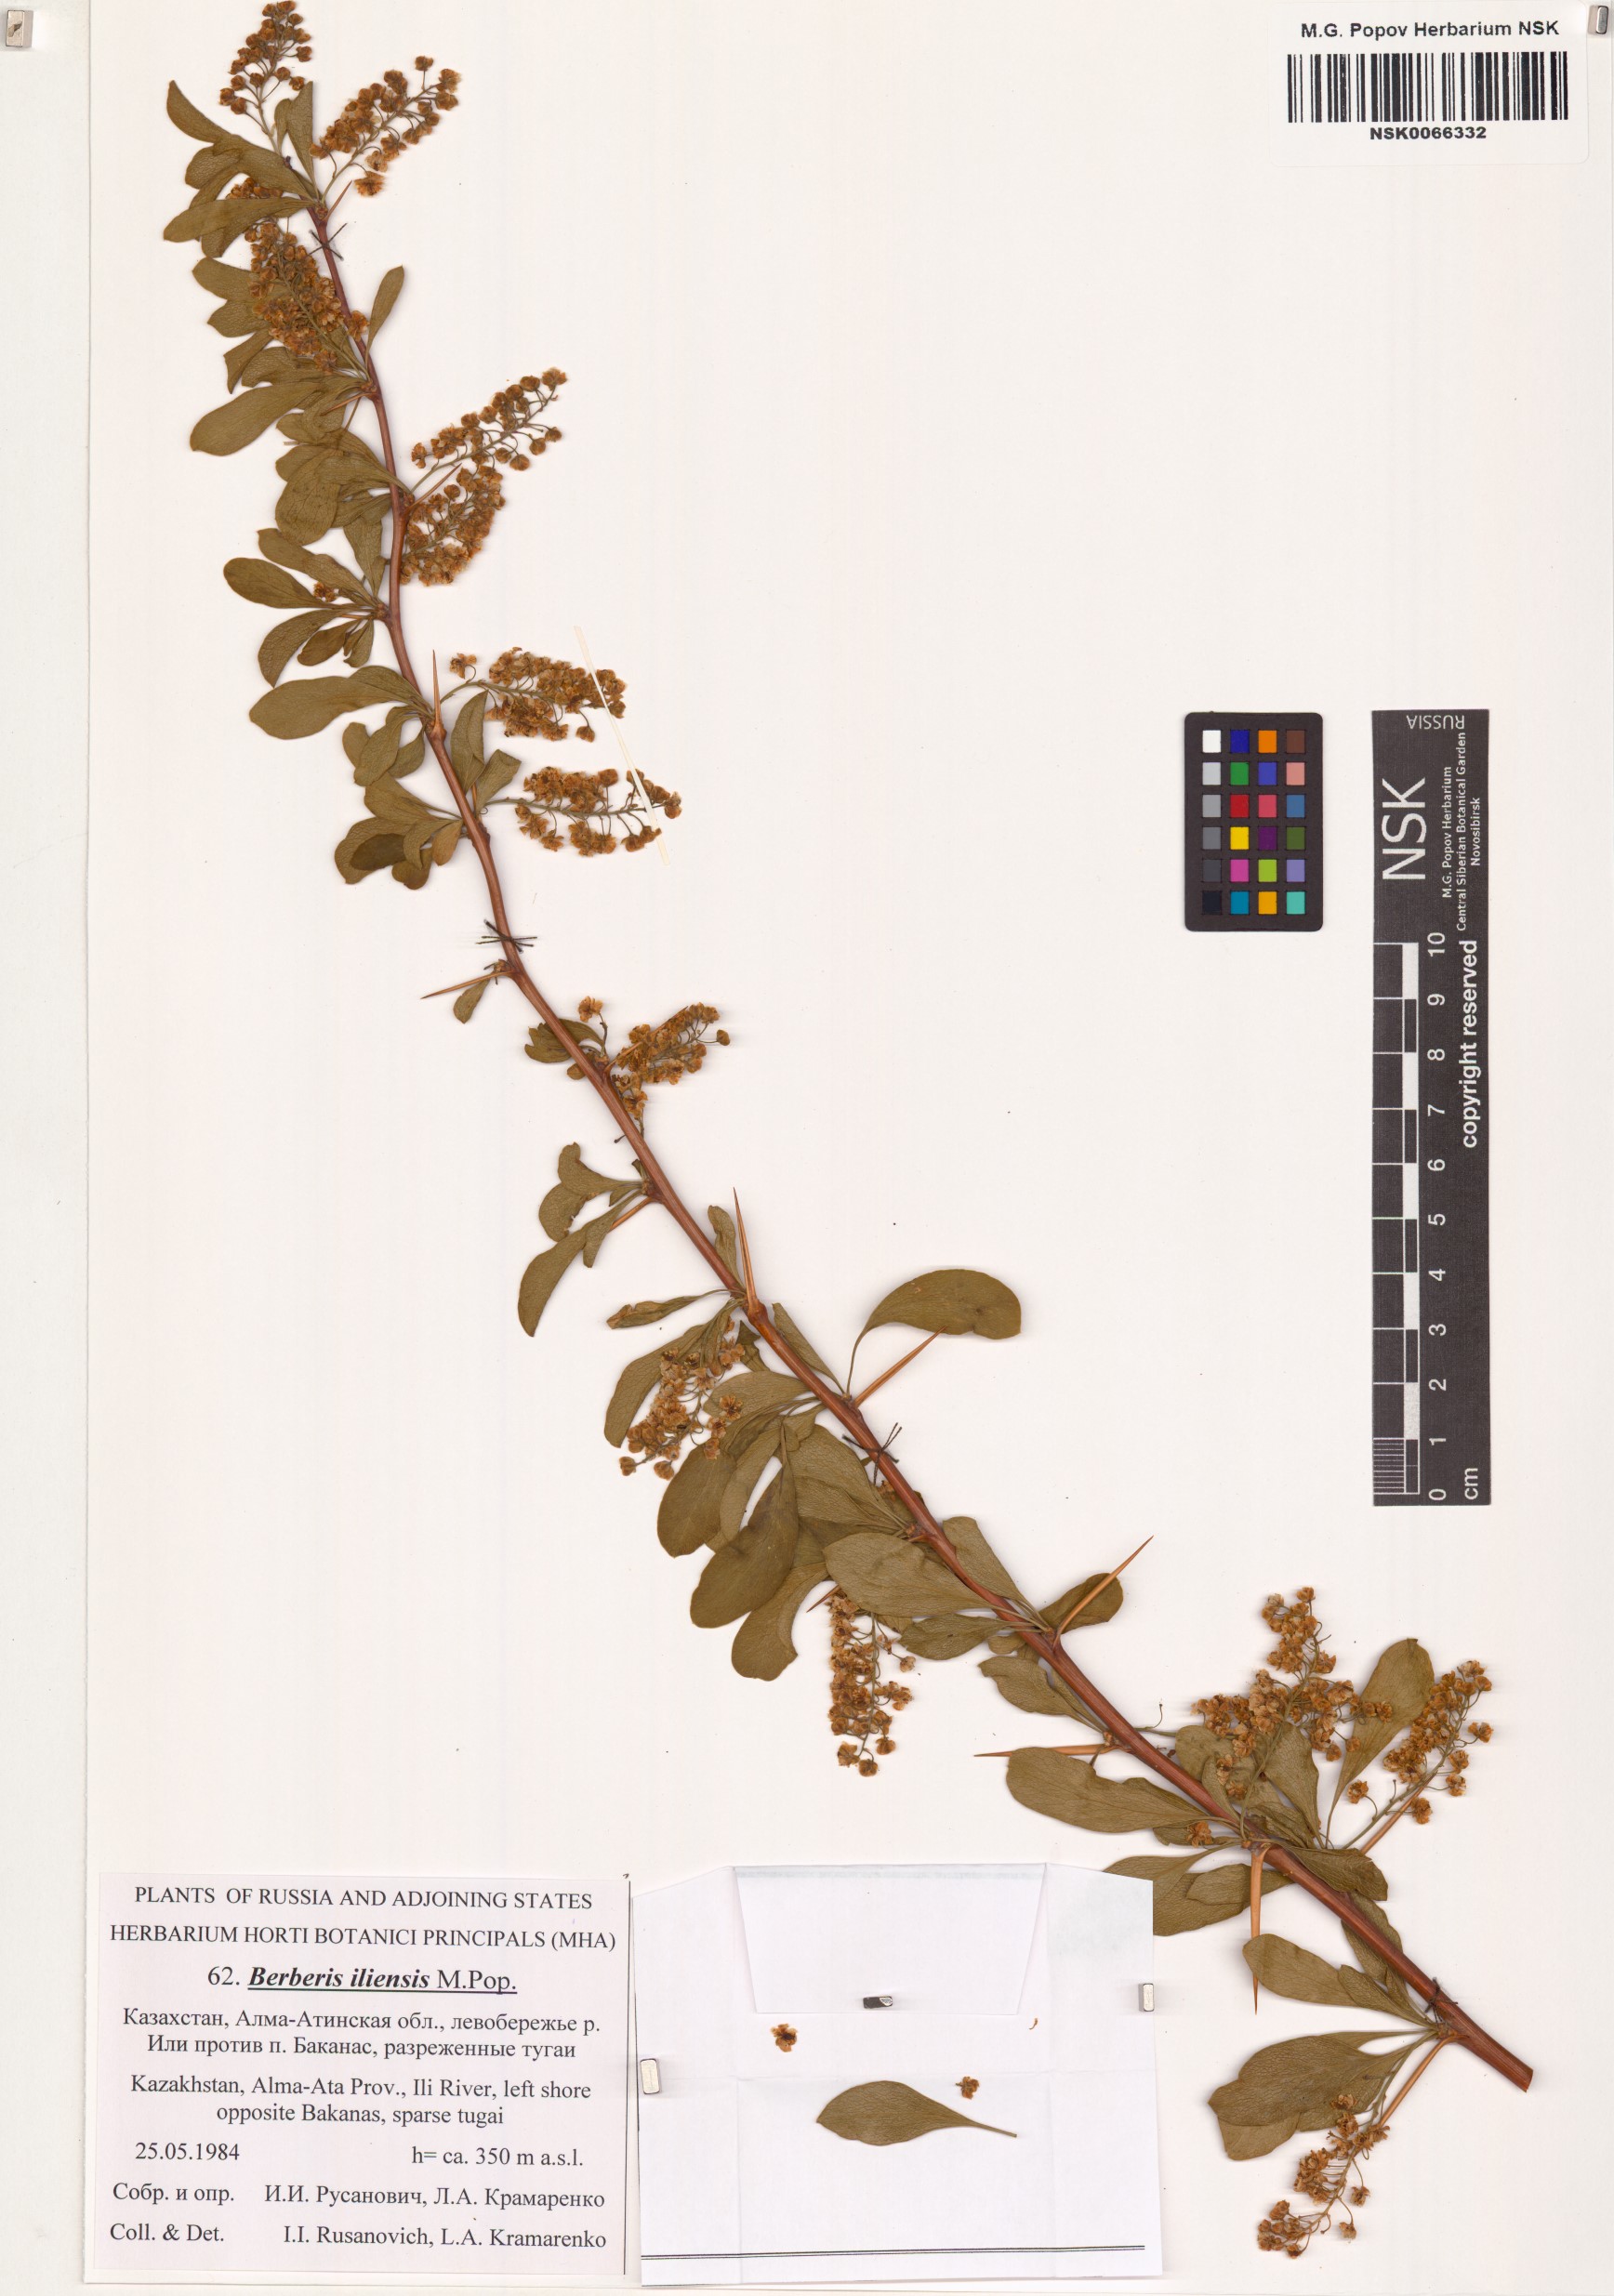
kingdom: Plantae
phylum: Tracheophyta
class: Magnoliopsida
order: Ranunculales
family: Berberidaceae
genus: Berberis
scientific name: Berberis integerrima
